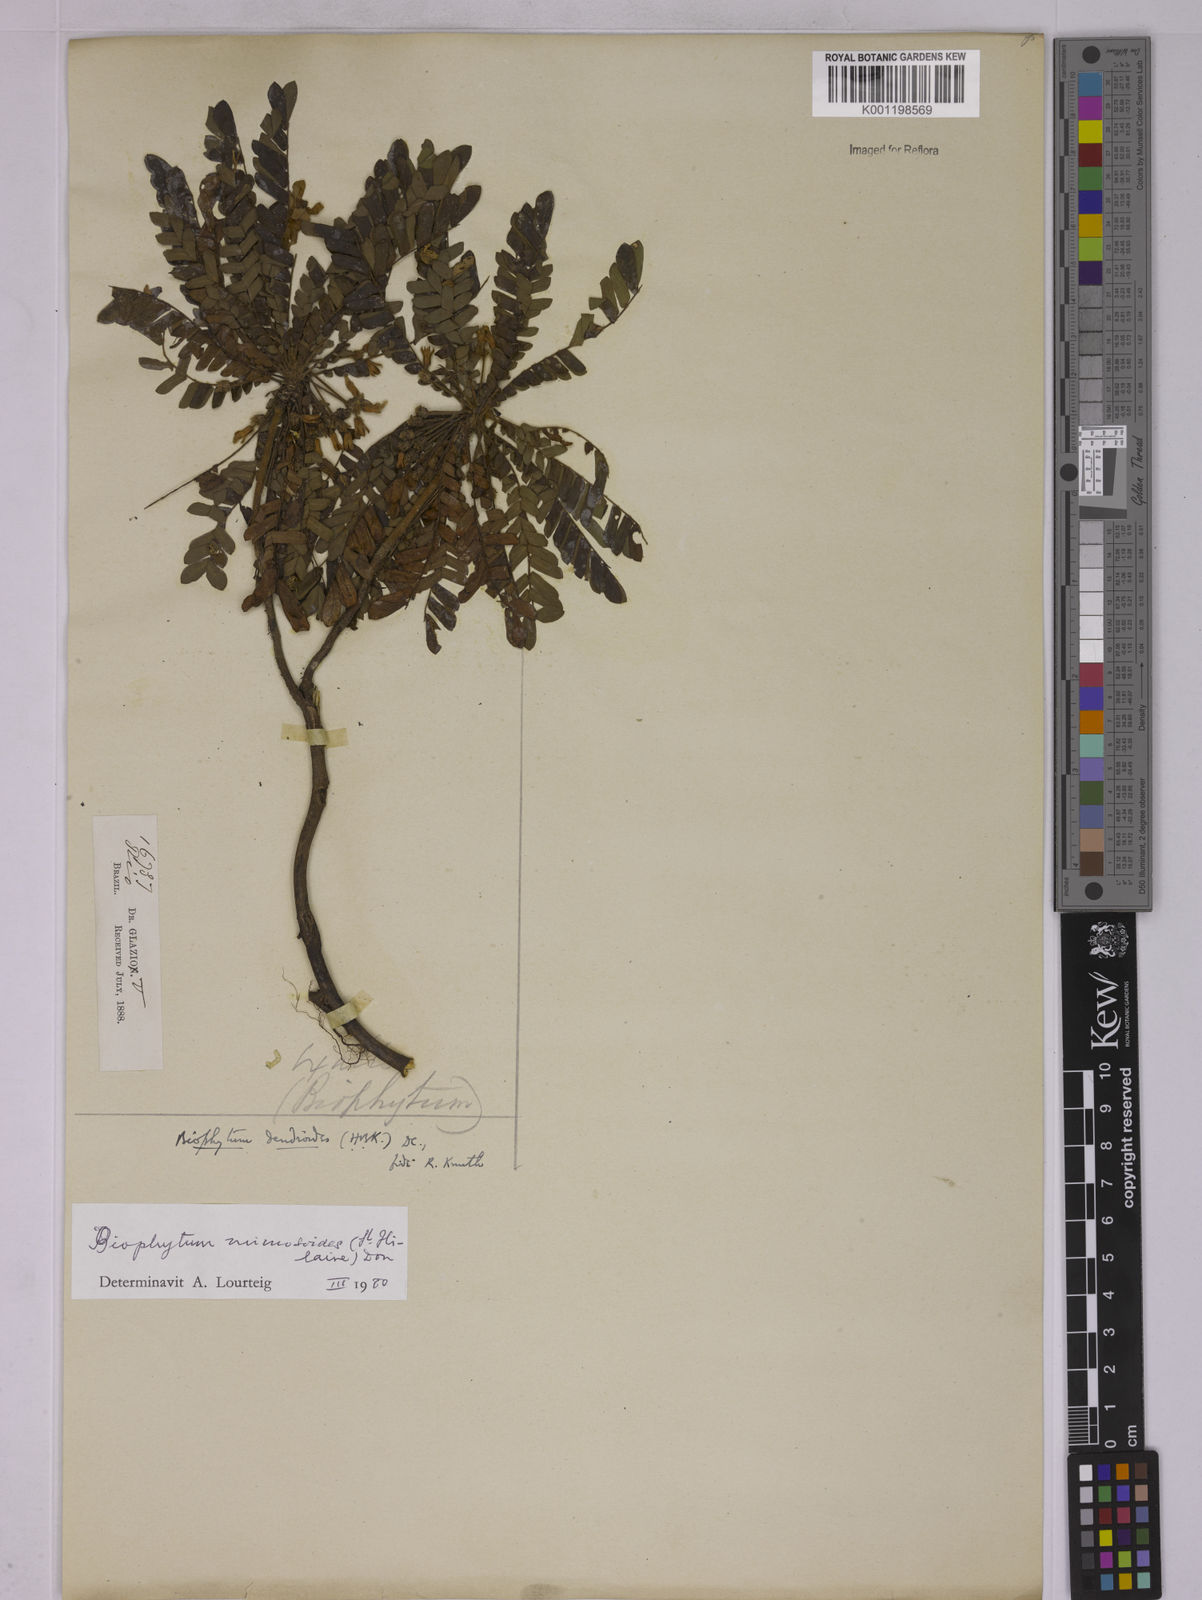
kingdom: Plantae
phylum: Tracheophyta
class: Magnoliopsida
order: Oxalidales
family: Oxalidaceae
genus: Biophytum
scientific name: Biophytum mimosoides
